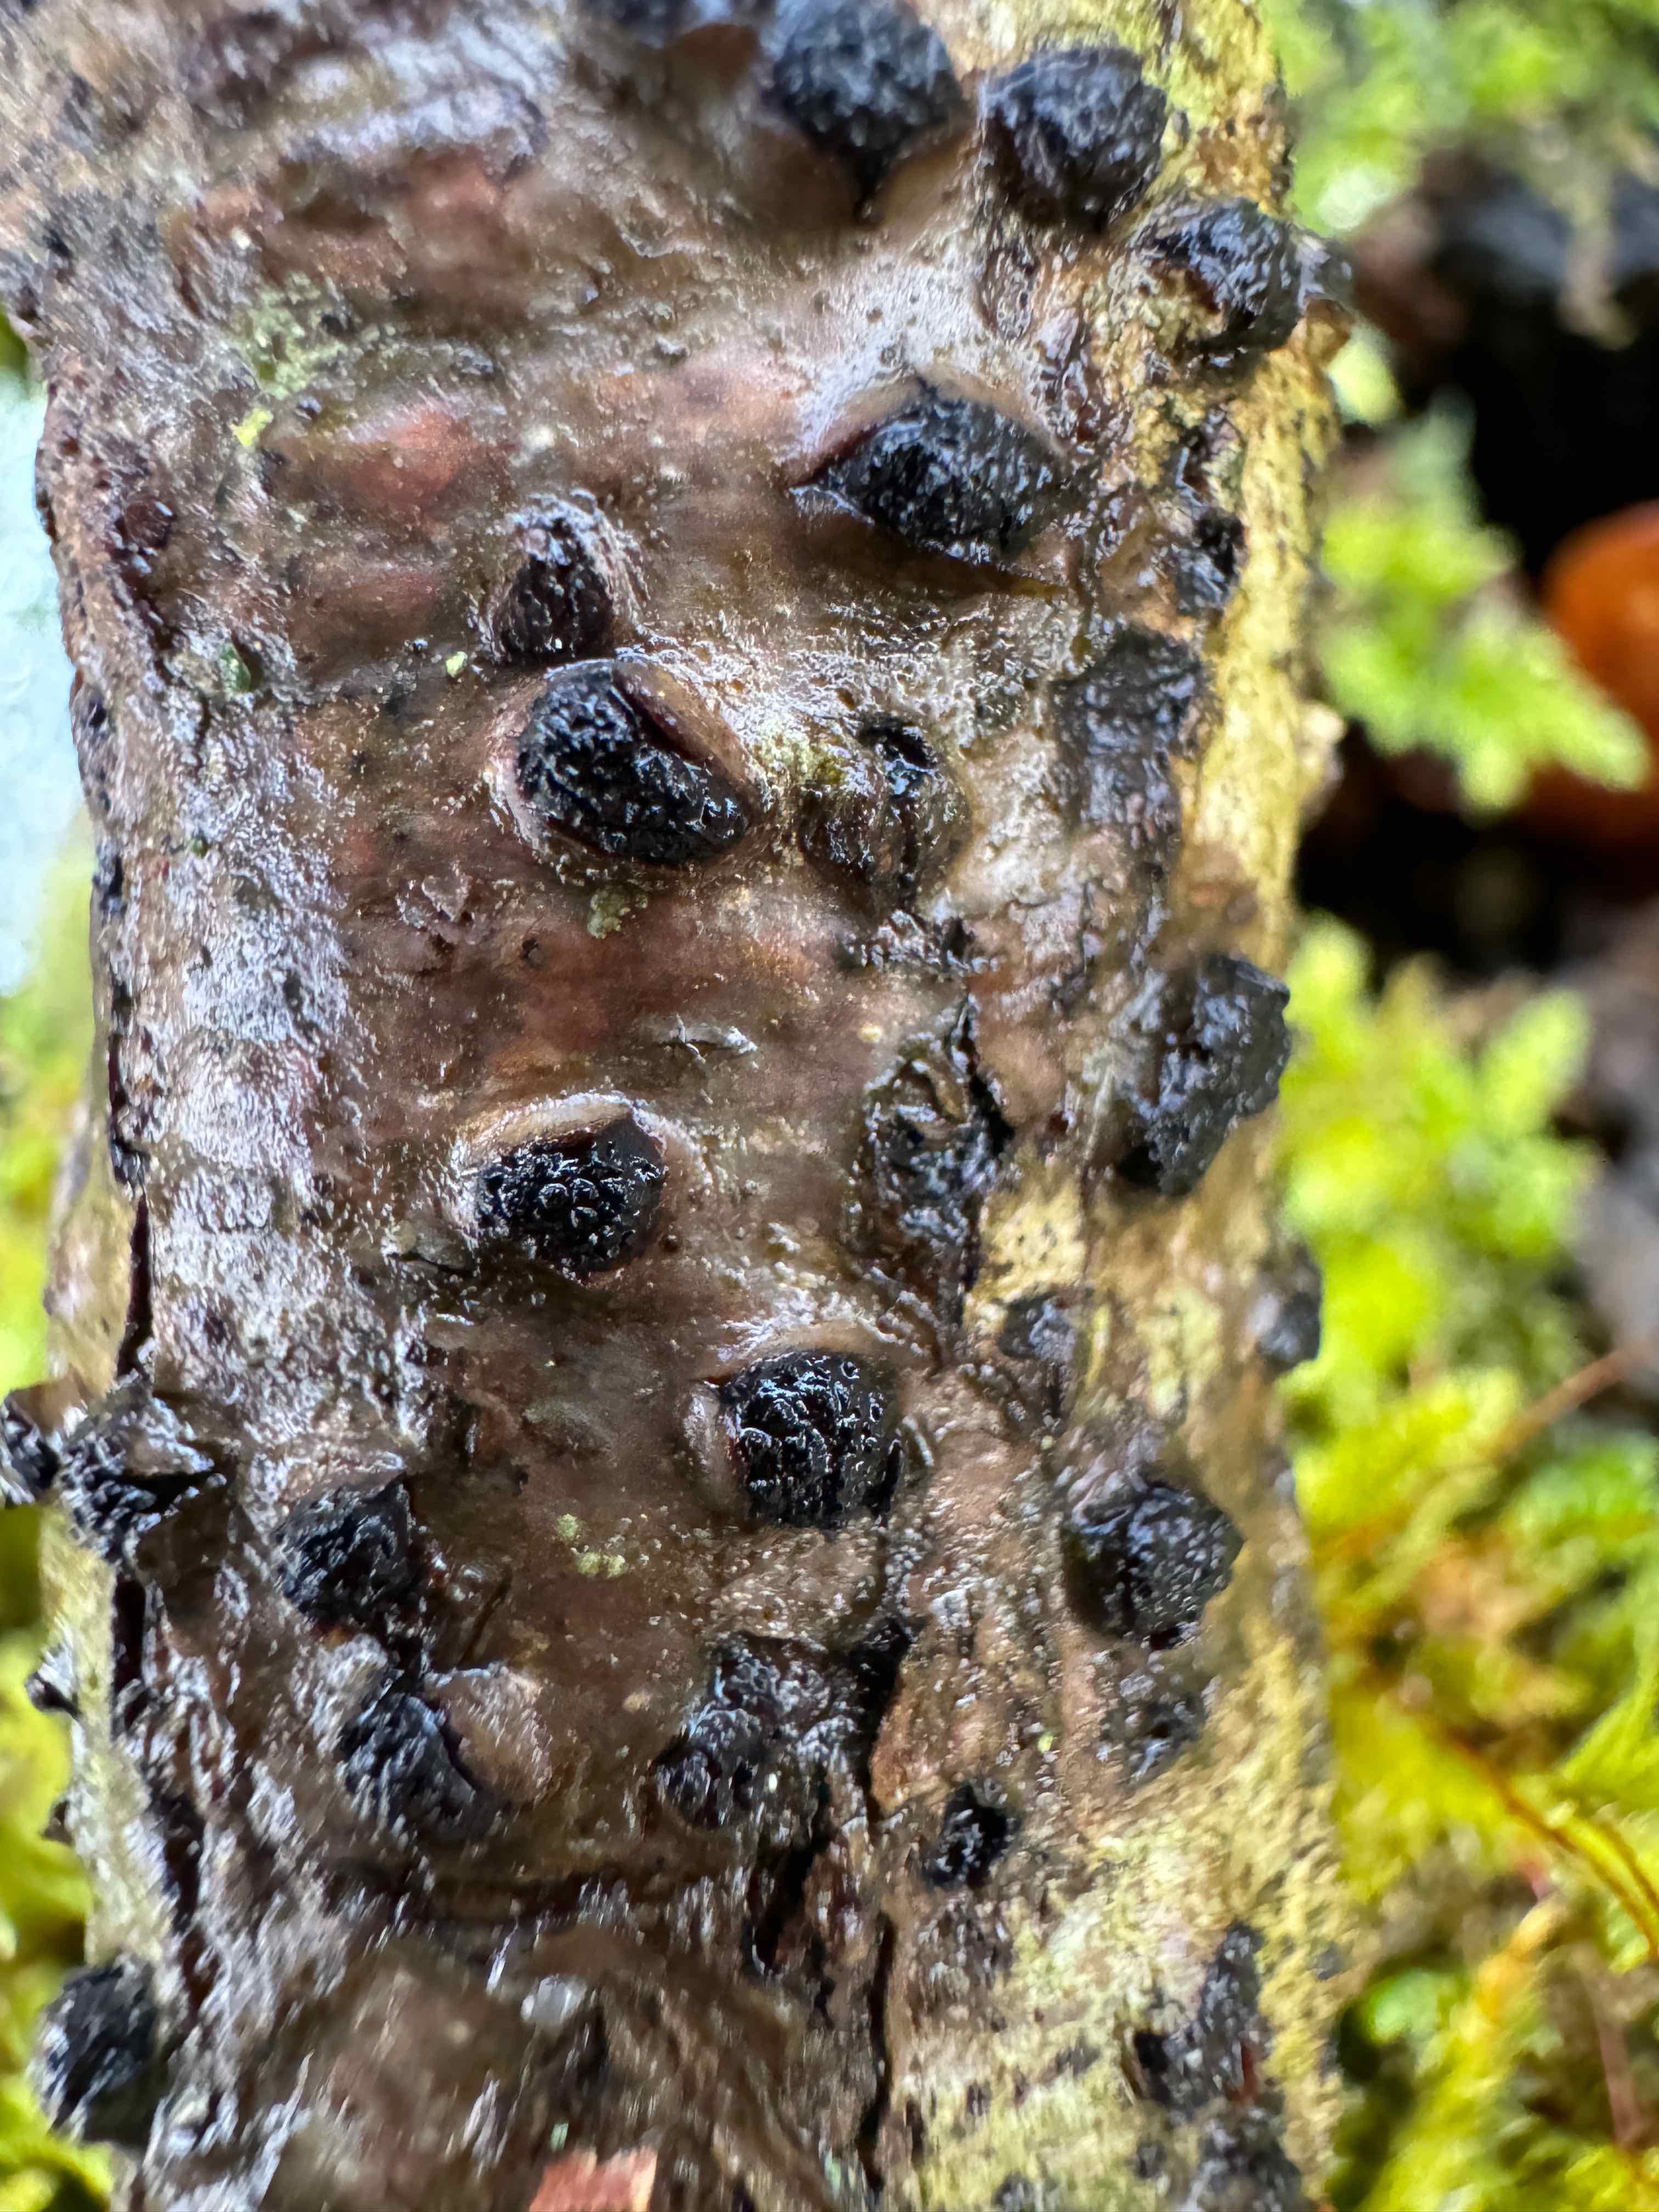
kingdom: Fungi
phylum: Ascomycota
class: Sordariomycetes
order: Xylariales
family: Diatrypaceae
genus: Diatrypella
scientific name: Diatrypella quercina
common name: ege-kulskorpe
